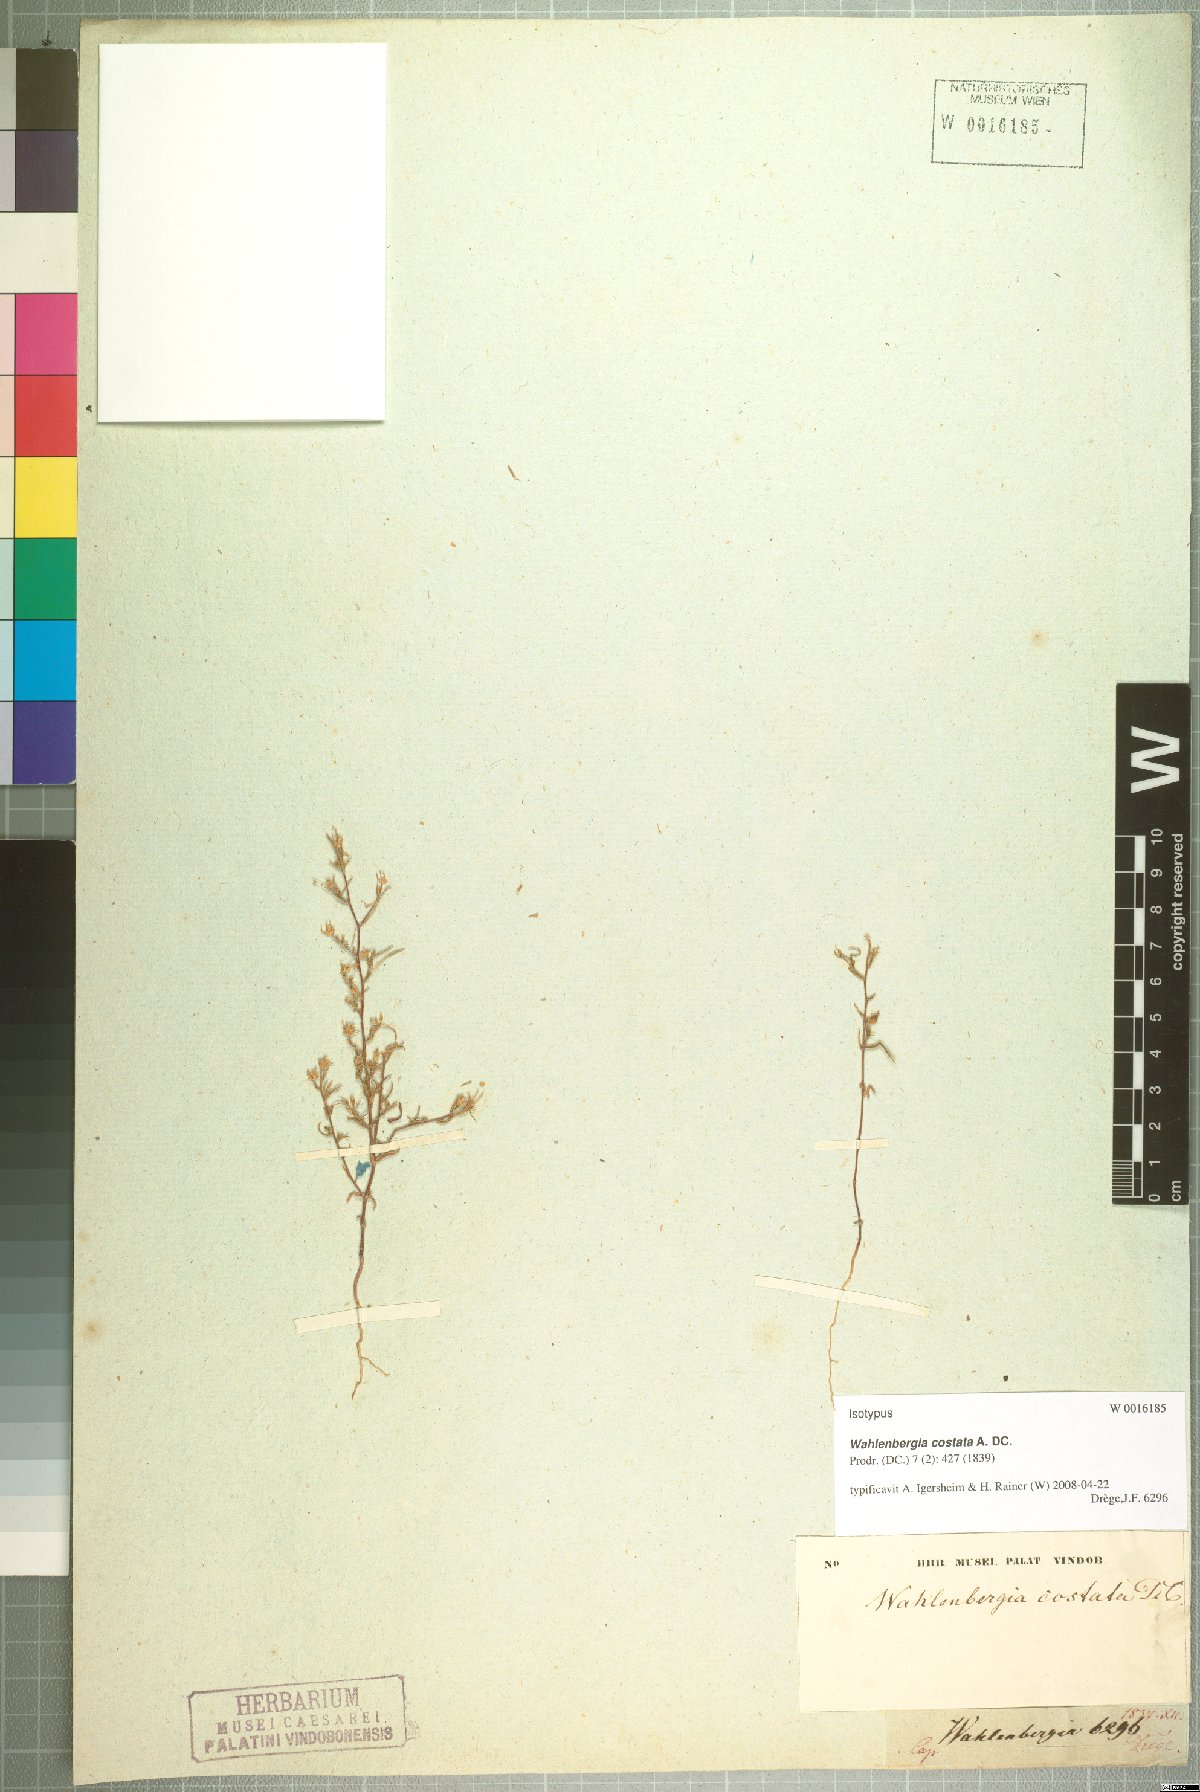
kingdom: Plantae
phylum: Tracheophyta
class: Magnoliopsida
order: Asterales
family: Campanulaceae
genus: Wahlenbergia
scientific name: Wahlenbergia costata
